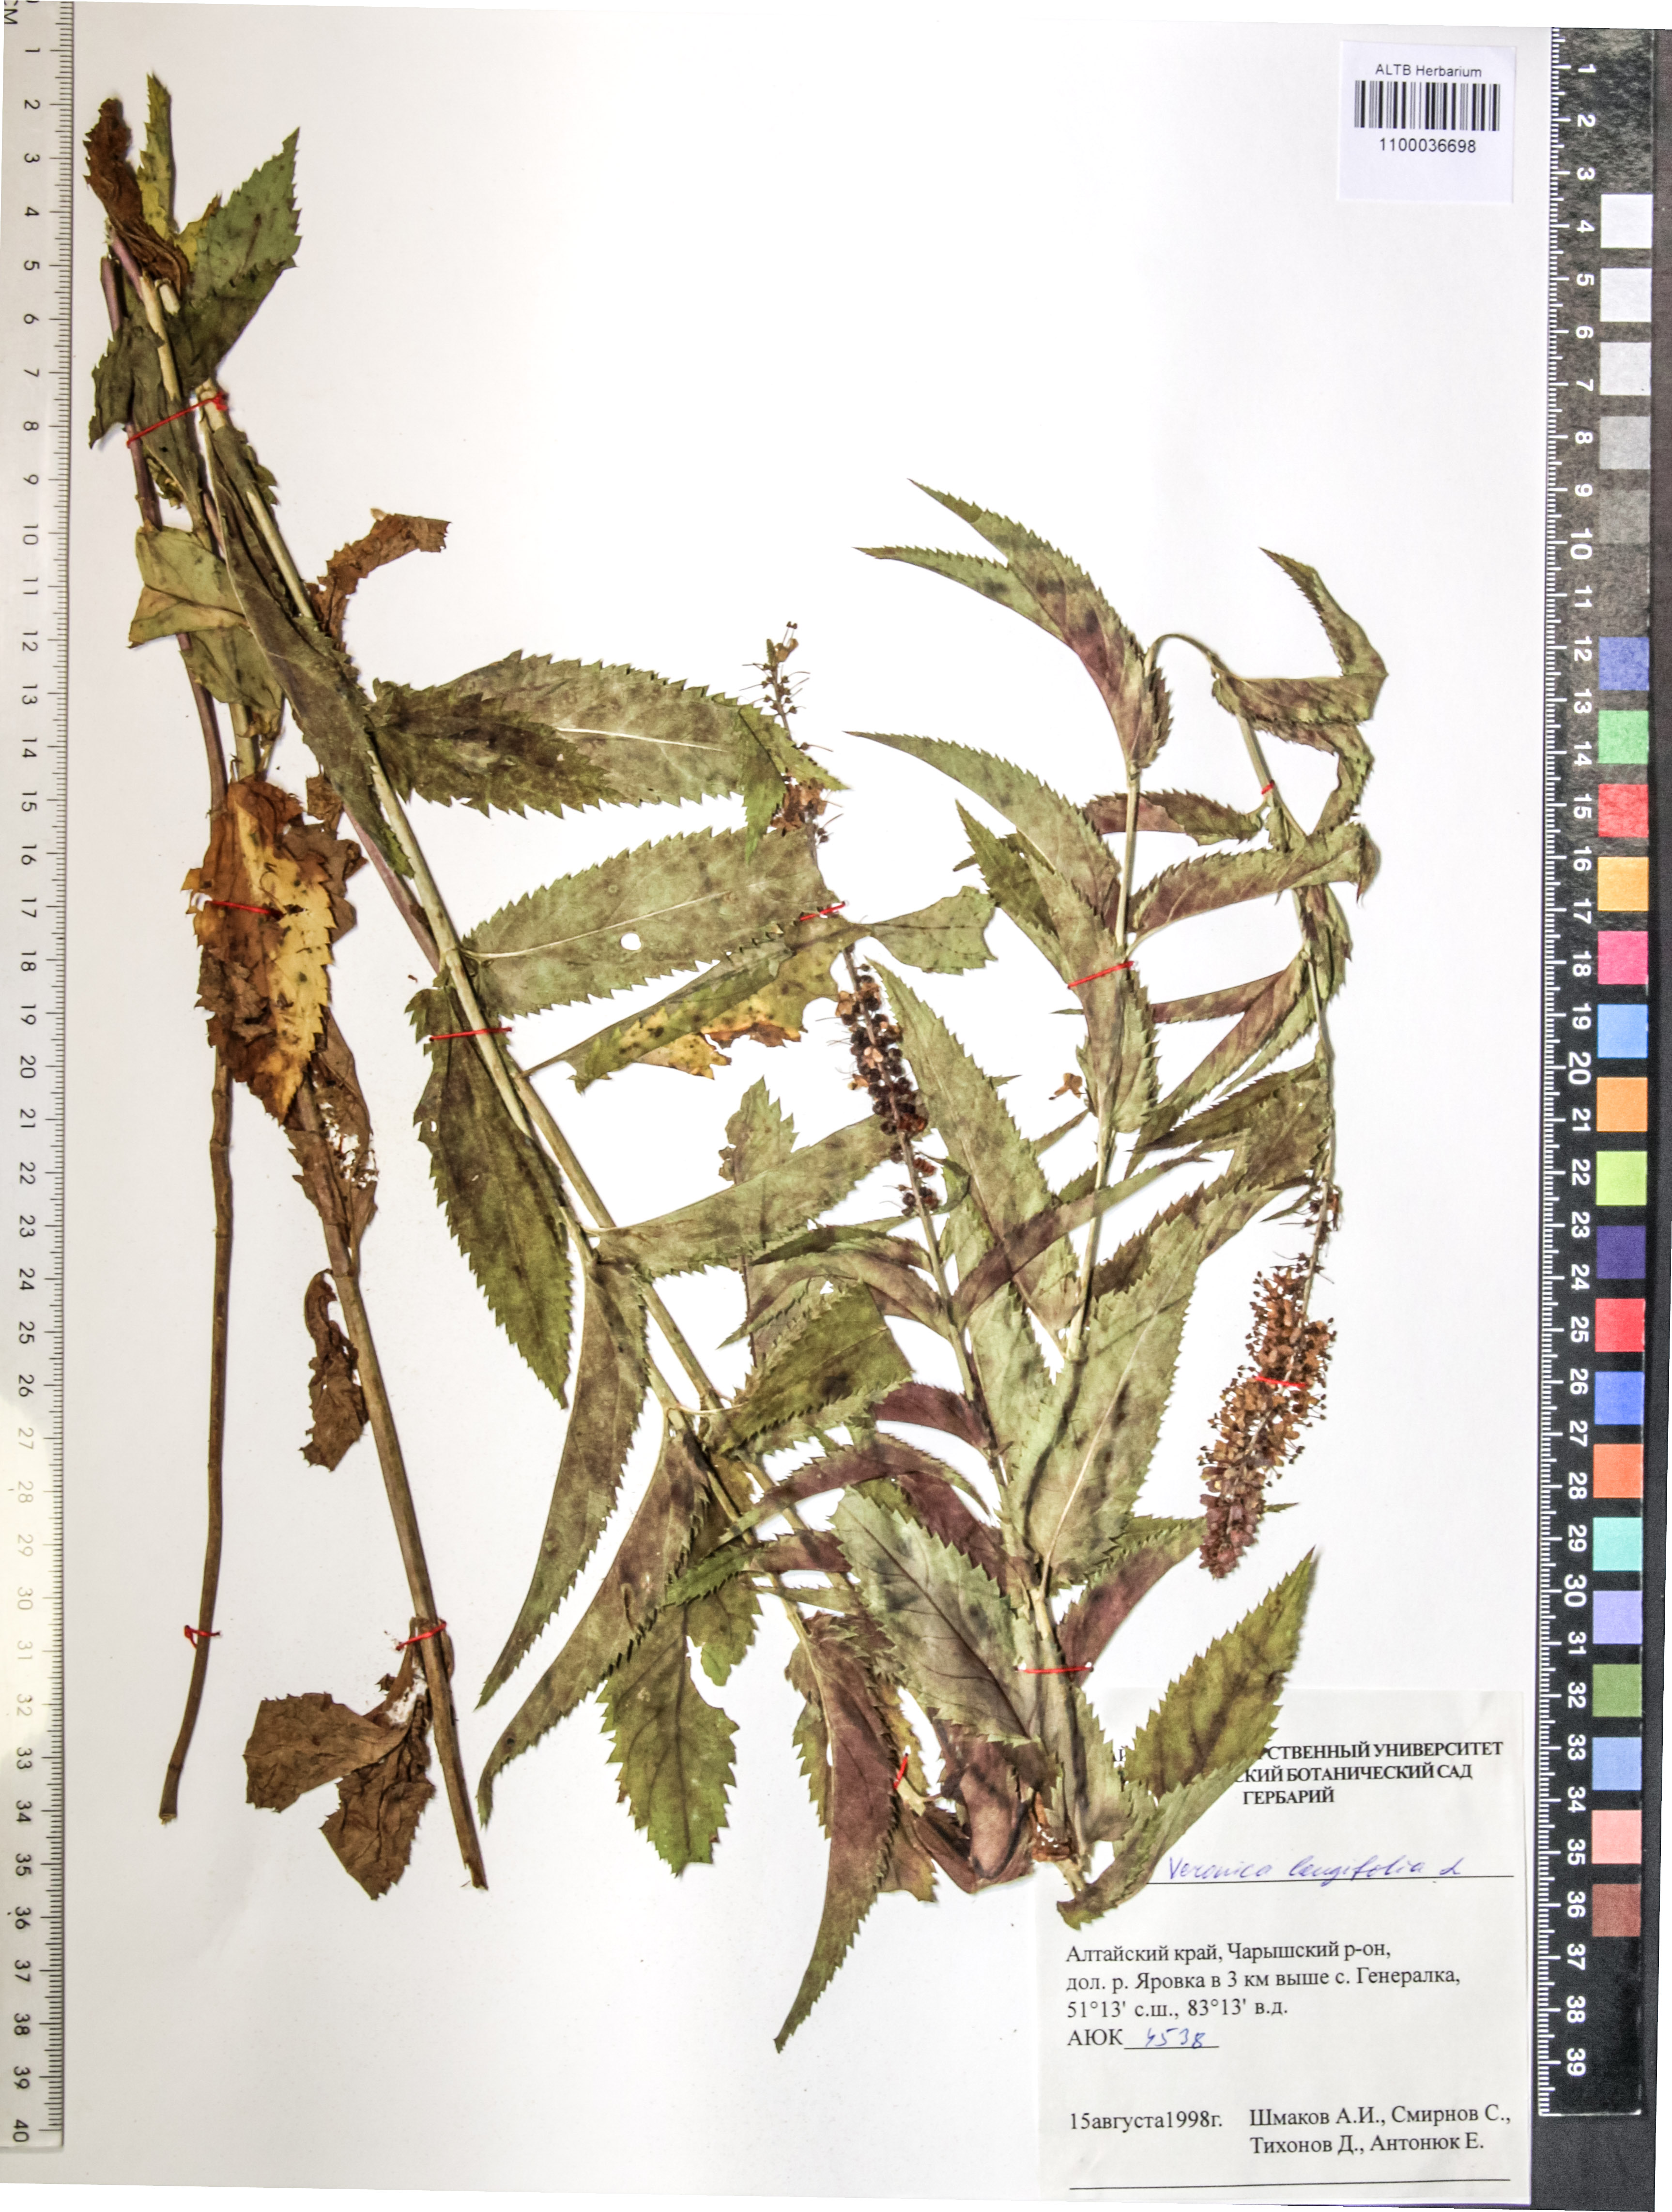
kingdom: Plantae
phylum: Tracheophyta
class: Magnoliopsida
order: Lamiales
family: Plantaginaceae
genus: Veronica
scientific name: Veronica longifolia
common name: Garden speedwell
